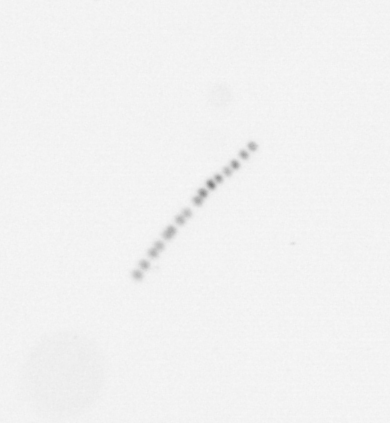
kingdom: Chromista
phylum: Ochrophyta
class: Bacillariophyceae
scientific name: Bacillariophyceae
